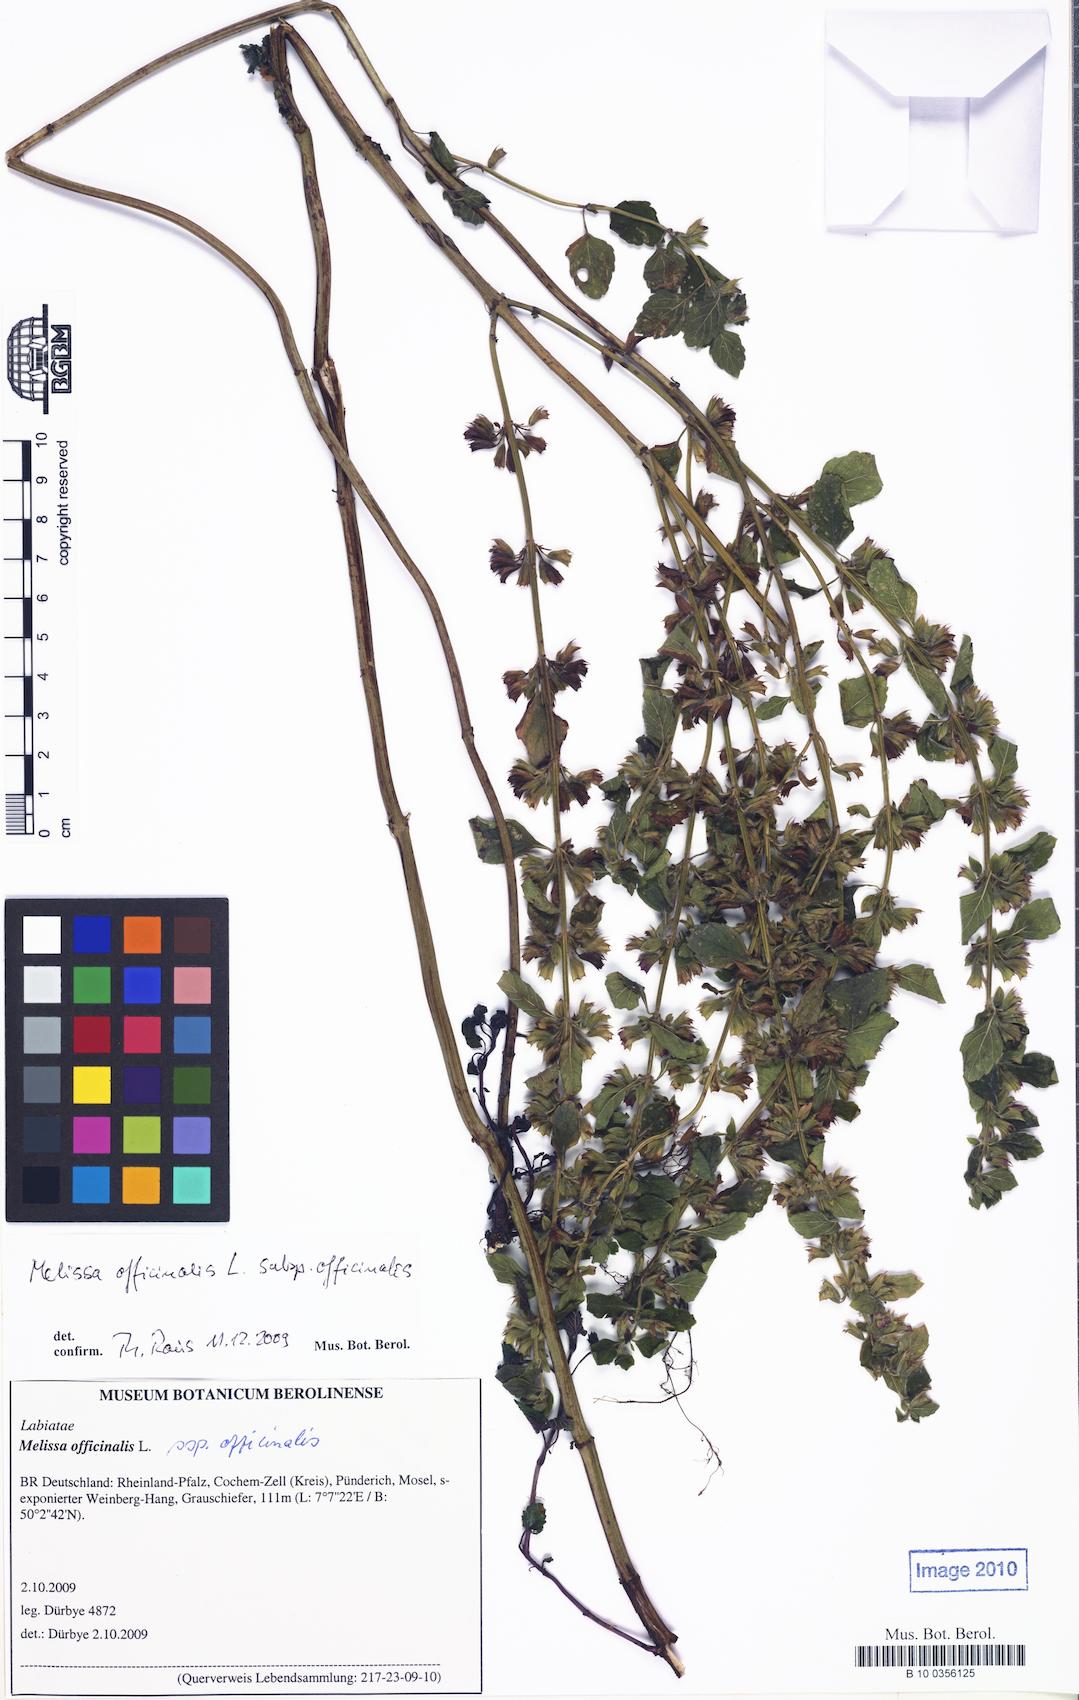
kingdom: Plantae
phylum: Tracheophyta
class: Magnoliopsida
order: Lamiales
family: Lamiaceae
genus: Melissa
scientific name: Melissa officinalis
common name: Balm
